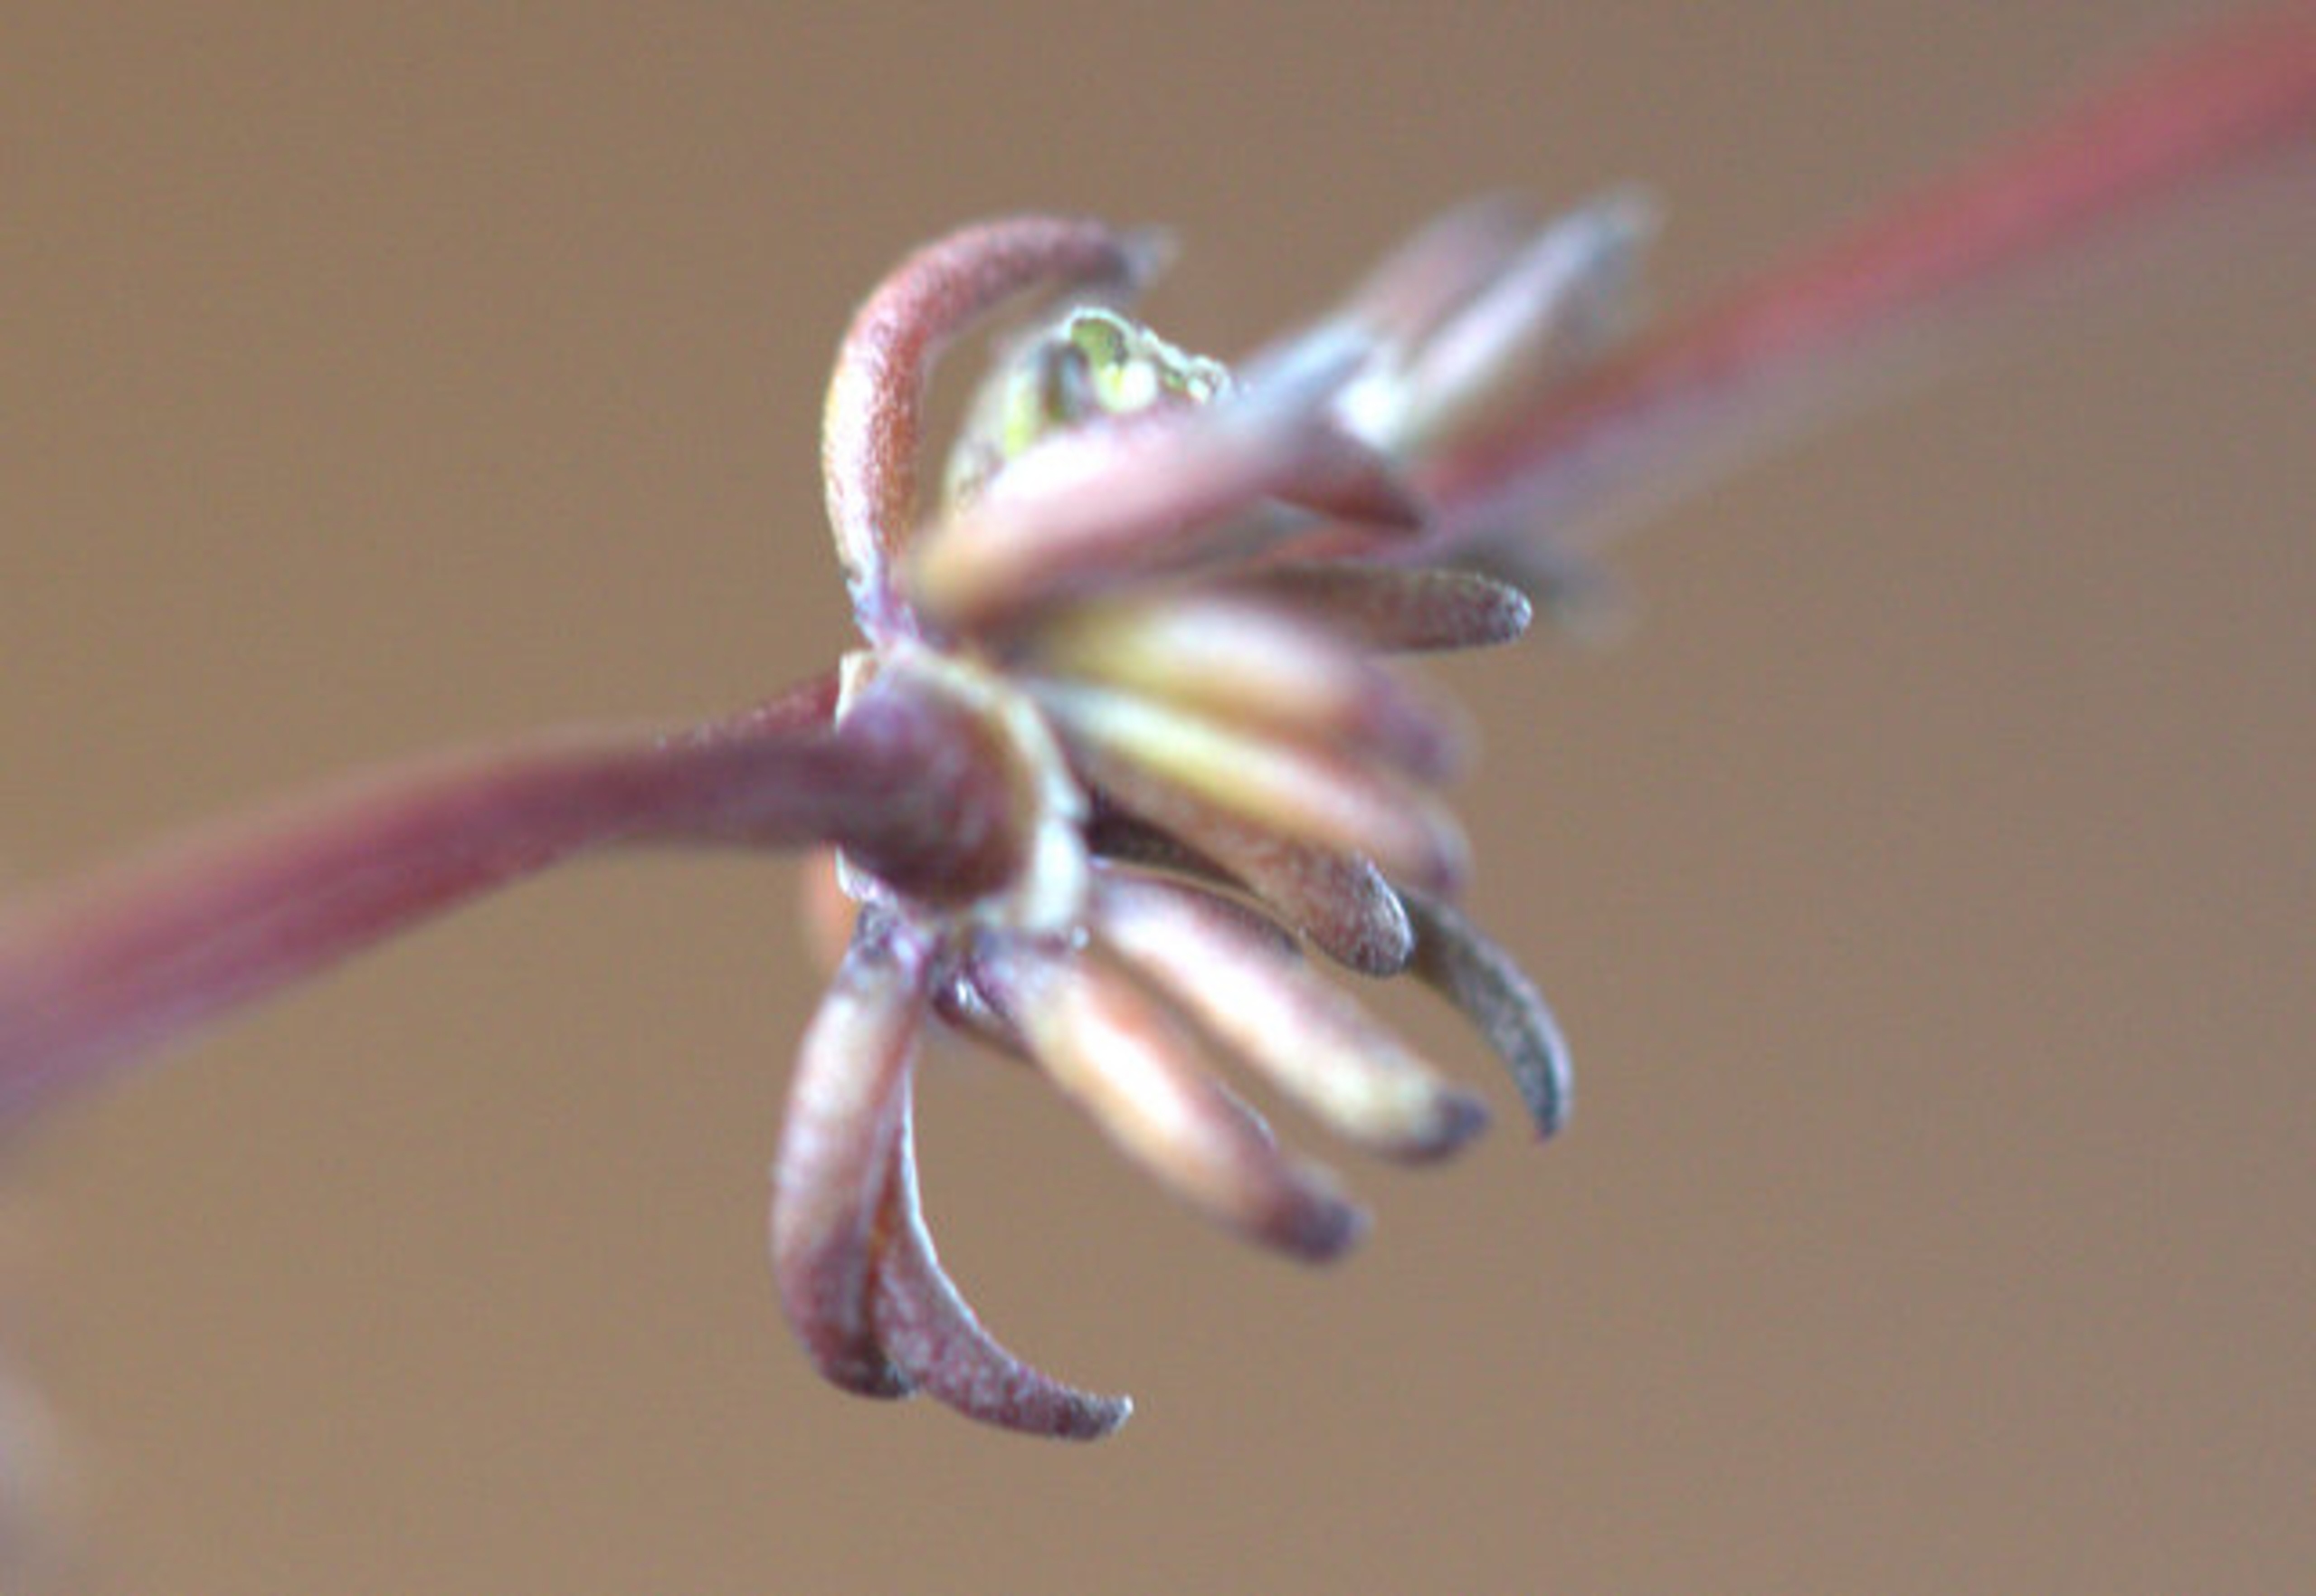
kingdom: Plantae
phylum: Tracheophyta
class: Magnoliopsida
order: Caryophyllales
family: Caryophyllaceae
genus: Spergula
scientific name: Spergula morisonii
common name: Vår-spergel
